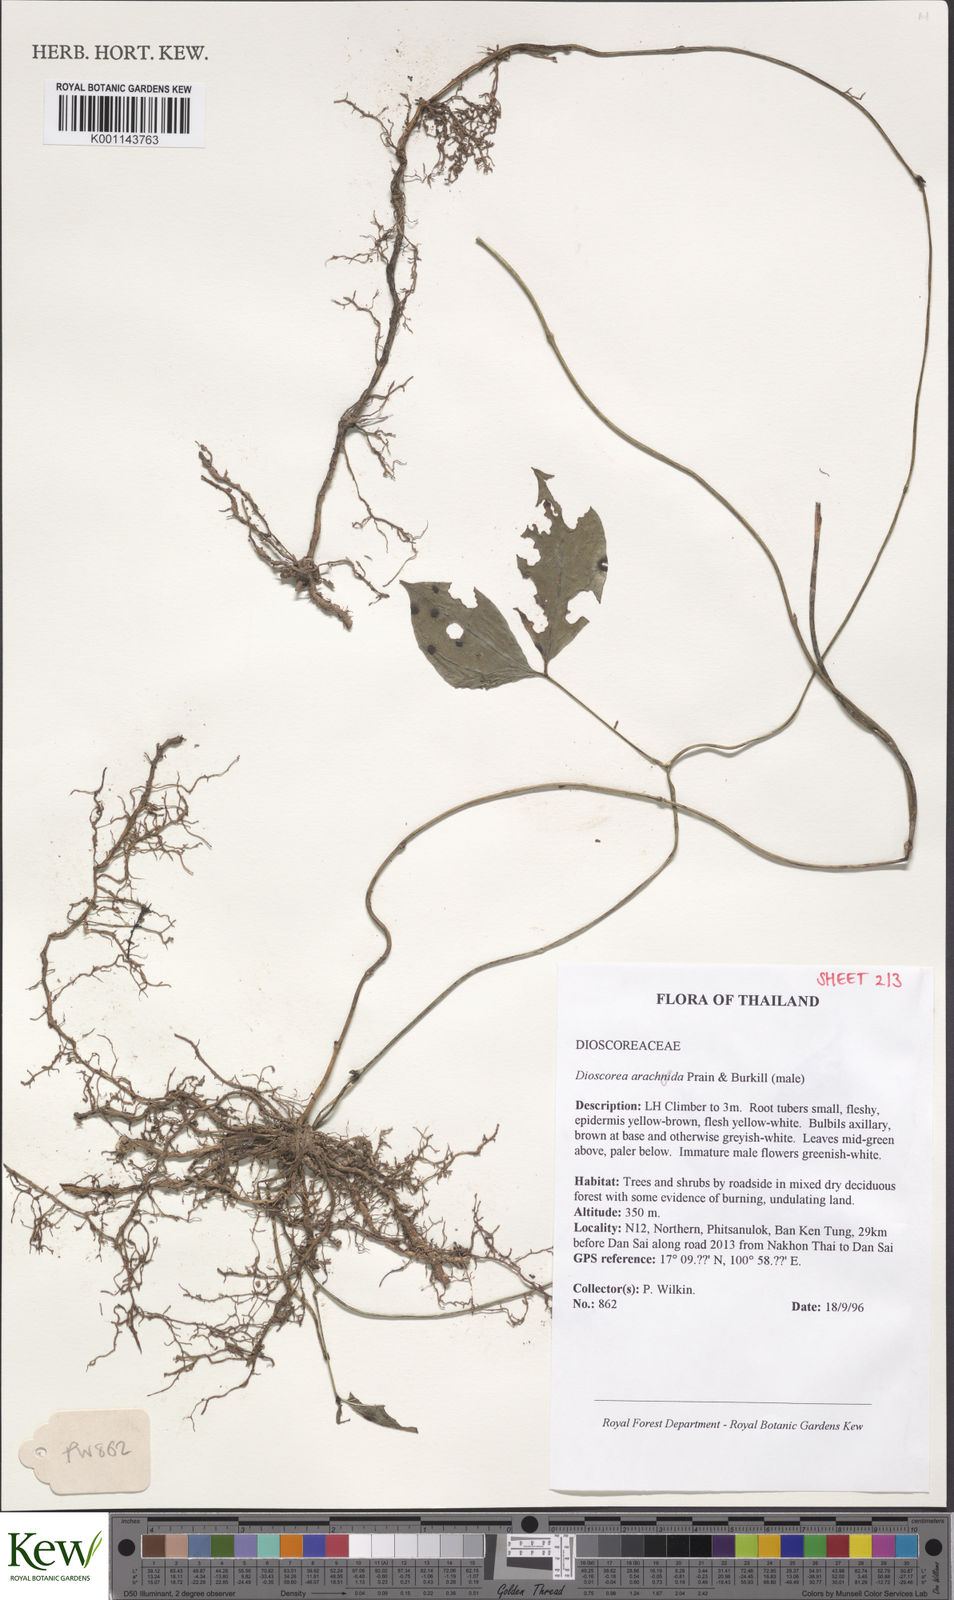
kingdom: Plantae
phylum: Tracheophyta
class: Liliopsida
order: Dioscoreales
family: Dioscoreaceae
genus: Dioscorea
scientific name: Dioscorea arachidna
